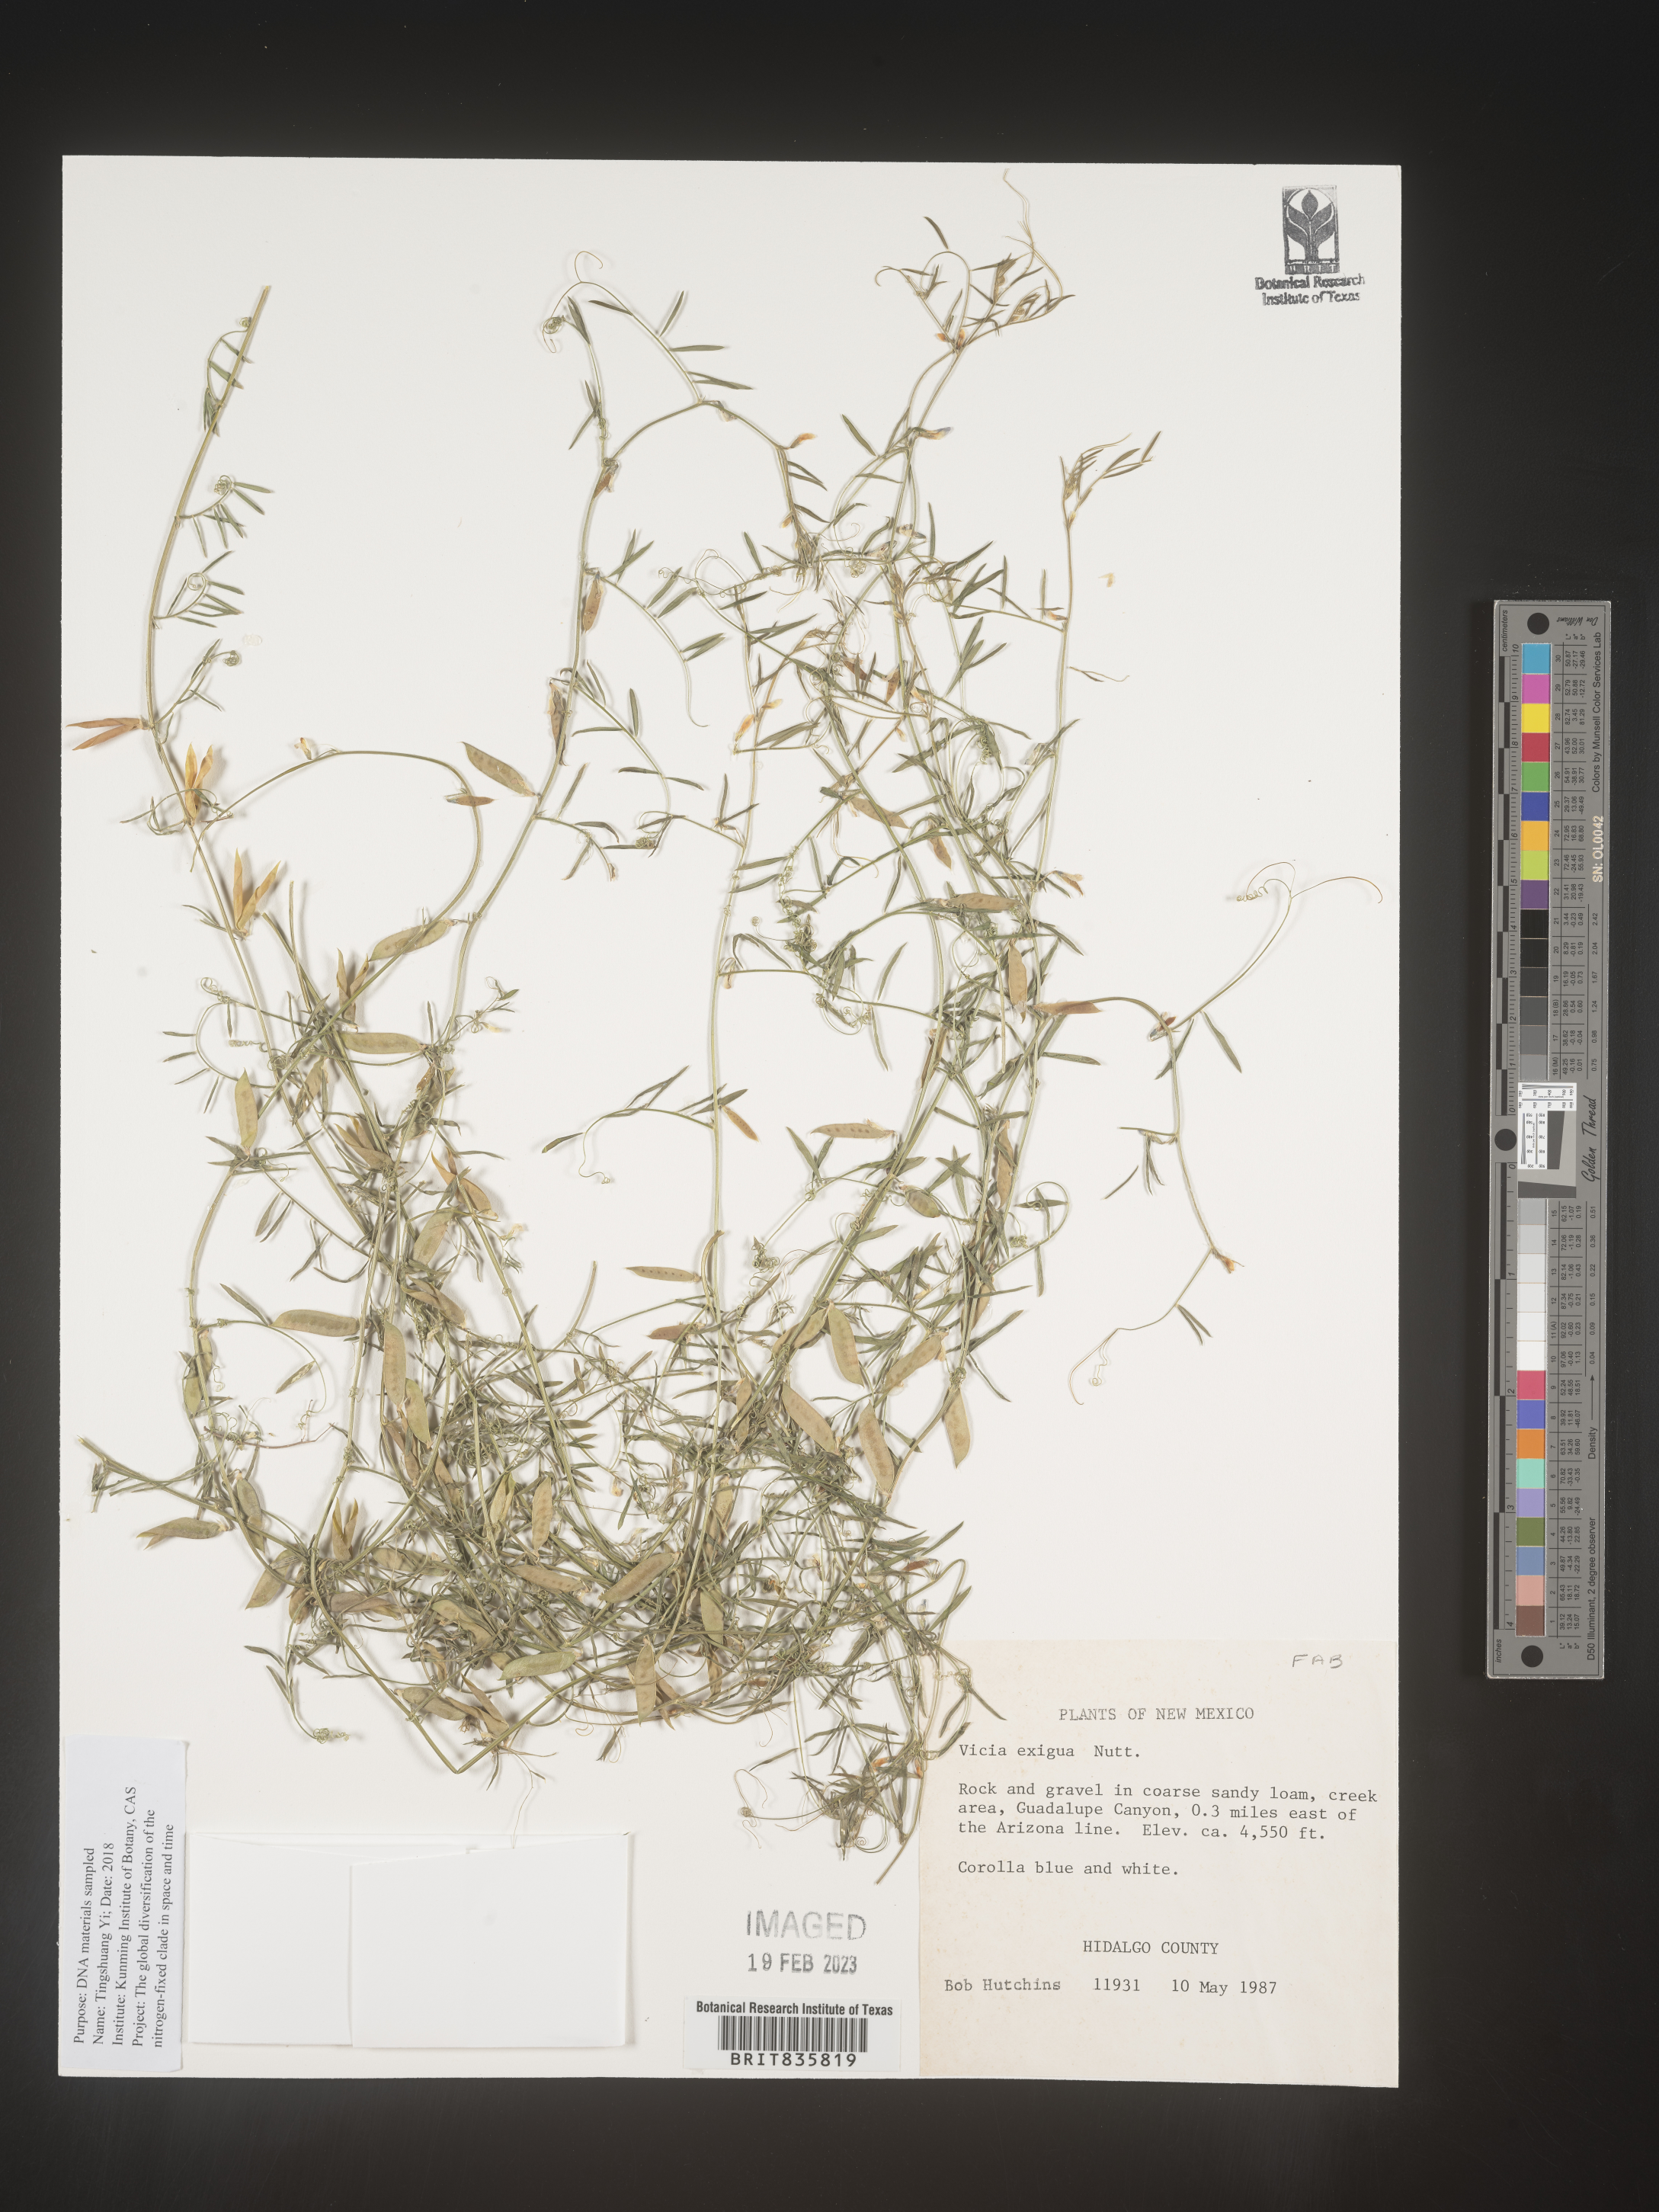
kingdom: Plantae
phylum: Tracheophyta
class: Magnoliopsida
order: Fabales
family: Fabaceae
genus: Vicia
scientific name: Vicia
